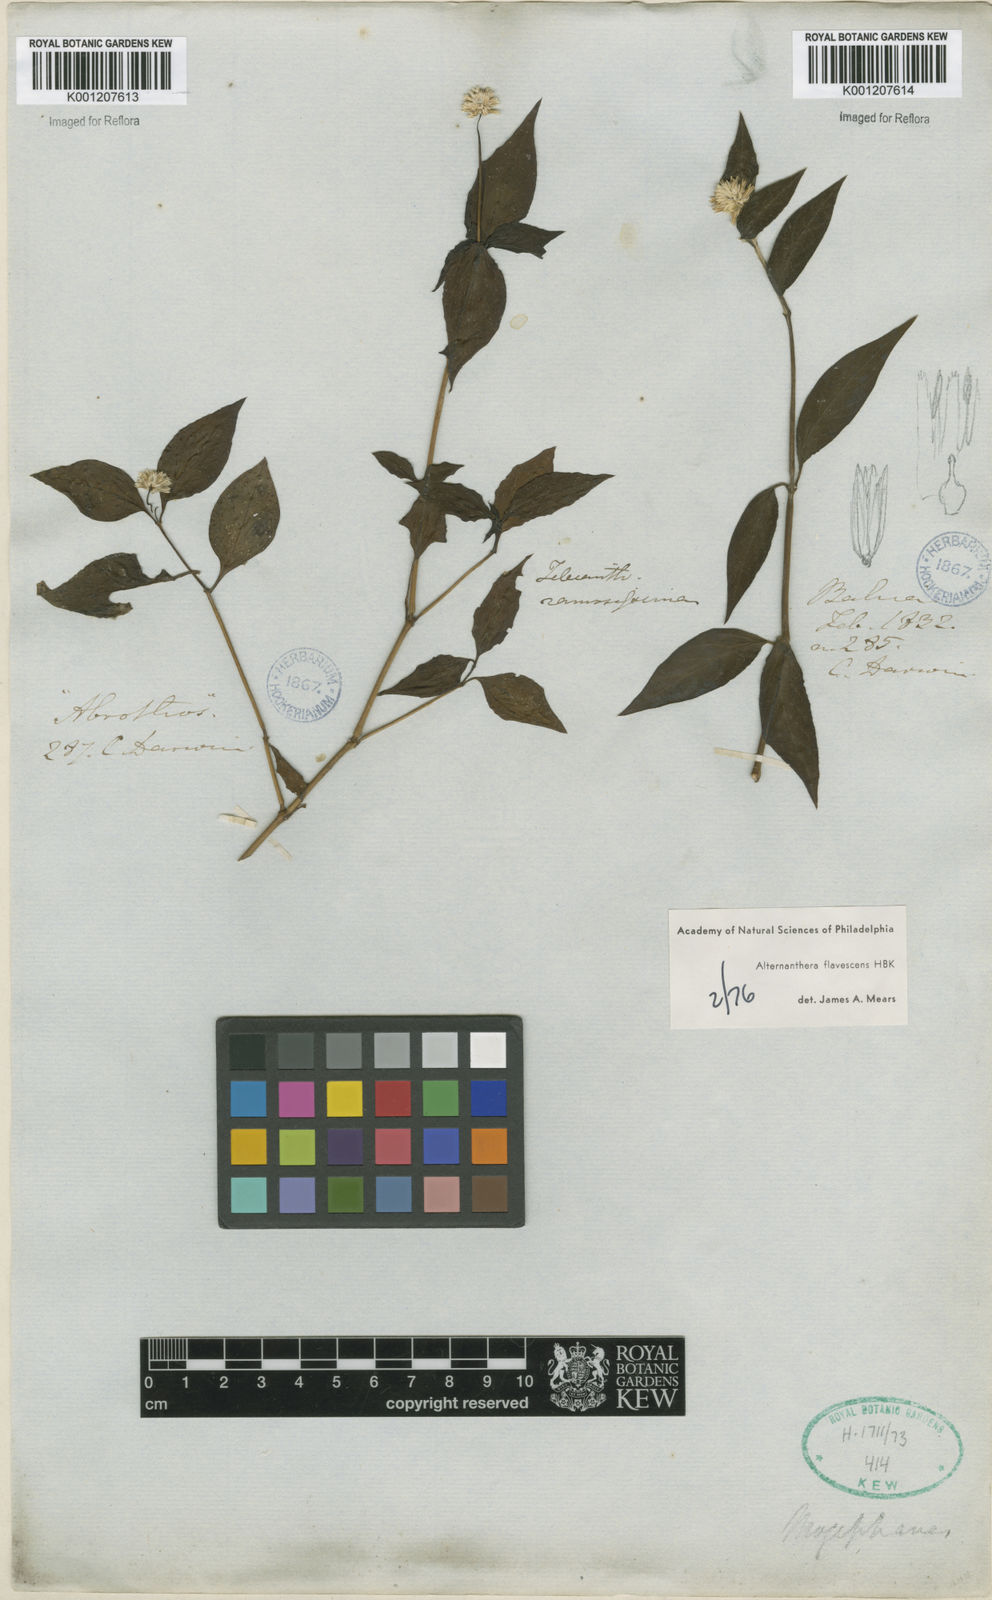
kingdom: Plantae
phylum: Tracheophyta
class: Magnoliopsida
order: Caryophyllales
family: Amaranthaceae
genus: Alternanthera
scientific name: Alternanthera flavescens
